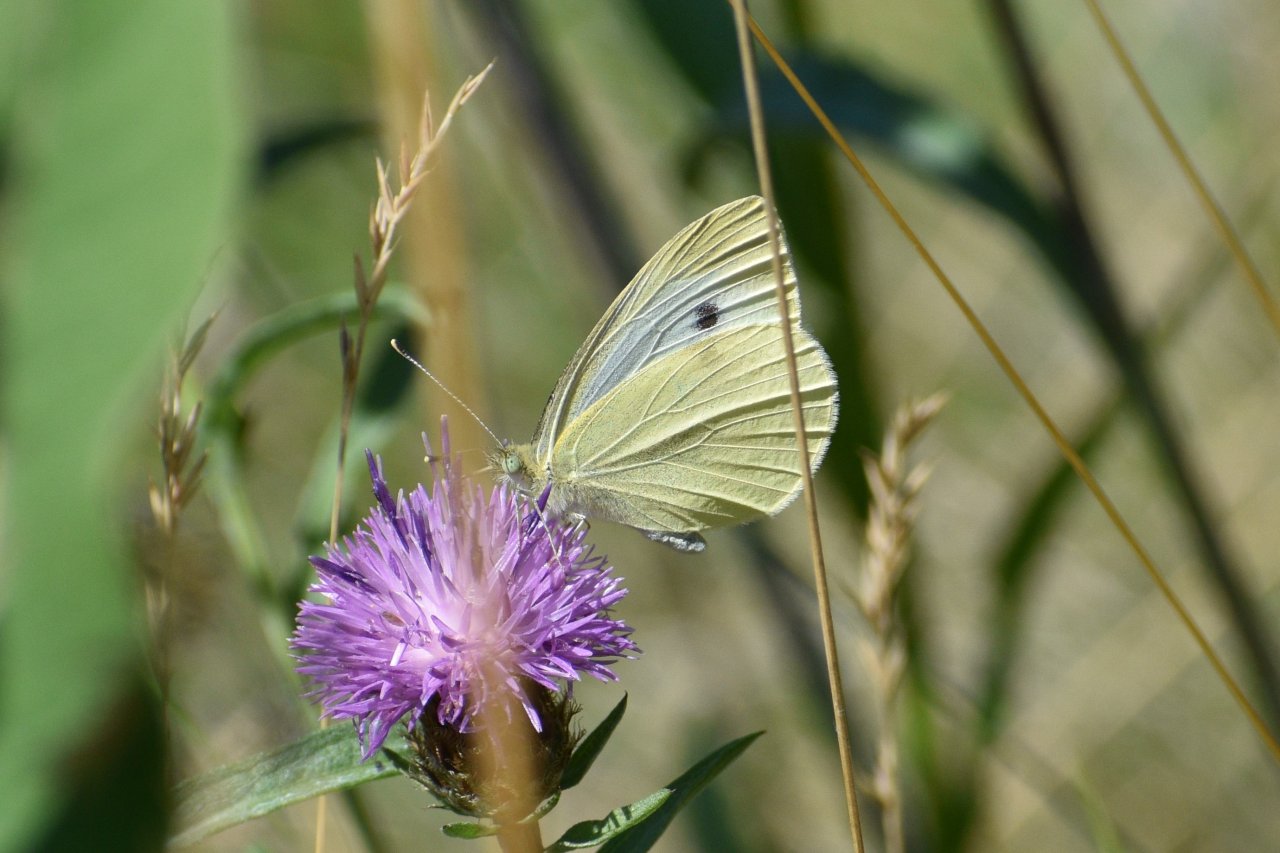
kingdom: Animalia
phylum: Arthropoda
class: Insecta
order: Lepidoptera
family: Pieridae
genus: Pieris
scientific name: Pieris rapae
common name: Cabbage White
